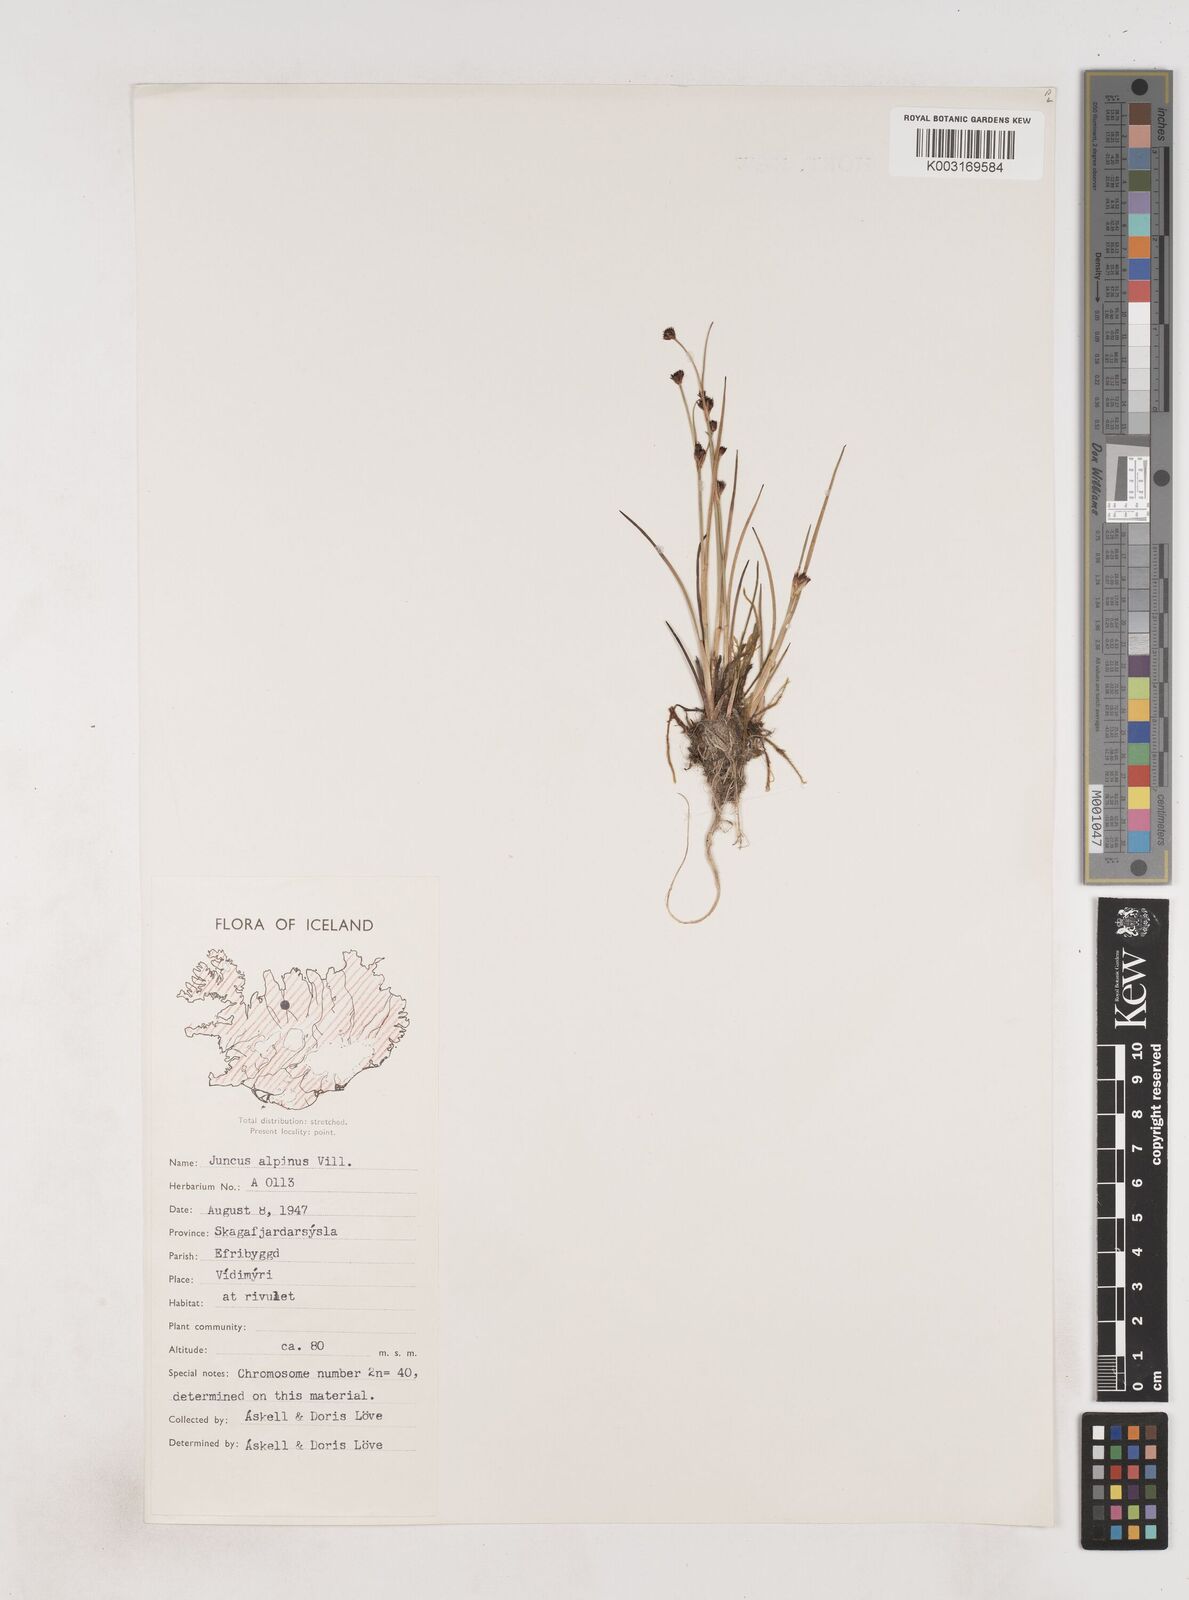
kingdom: Plantae
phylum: Tracheophyta
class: Liliopsida
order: Poales
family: Juncaceae
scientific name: Juncaceae
